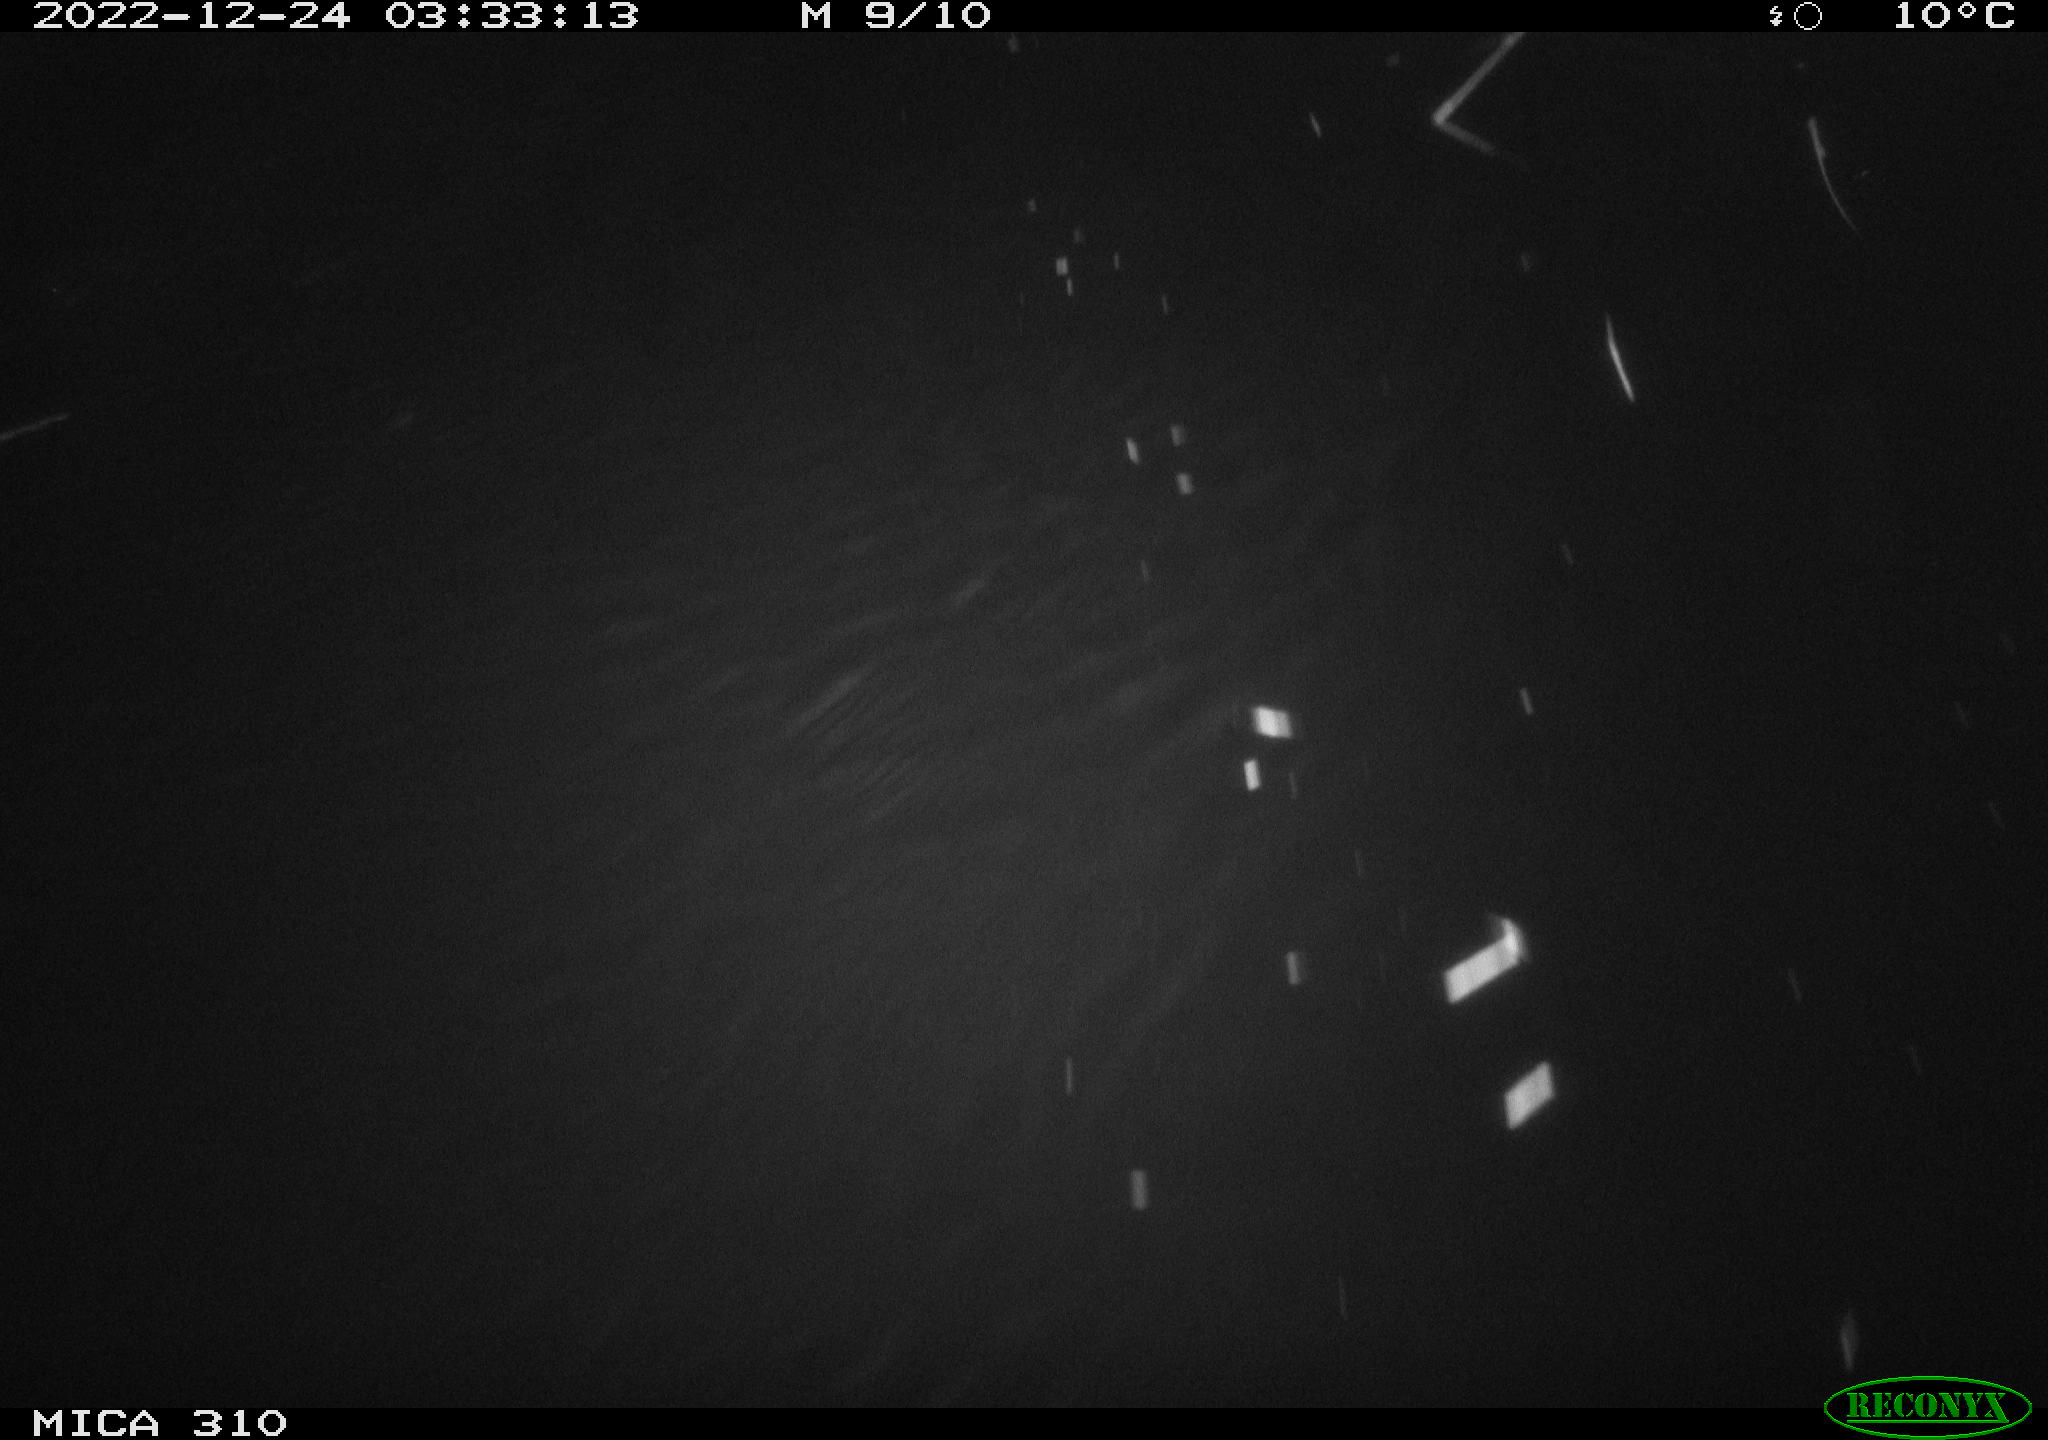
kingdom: Animalia
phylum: Chordata
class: Mammalia
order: Rodentia
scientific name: Rodentia
